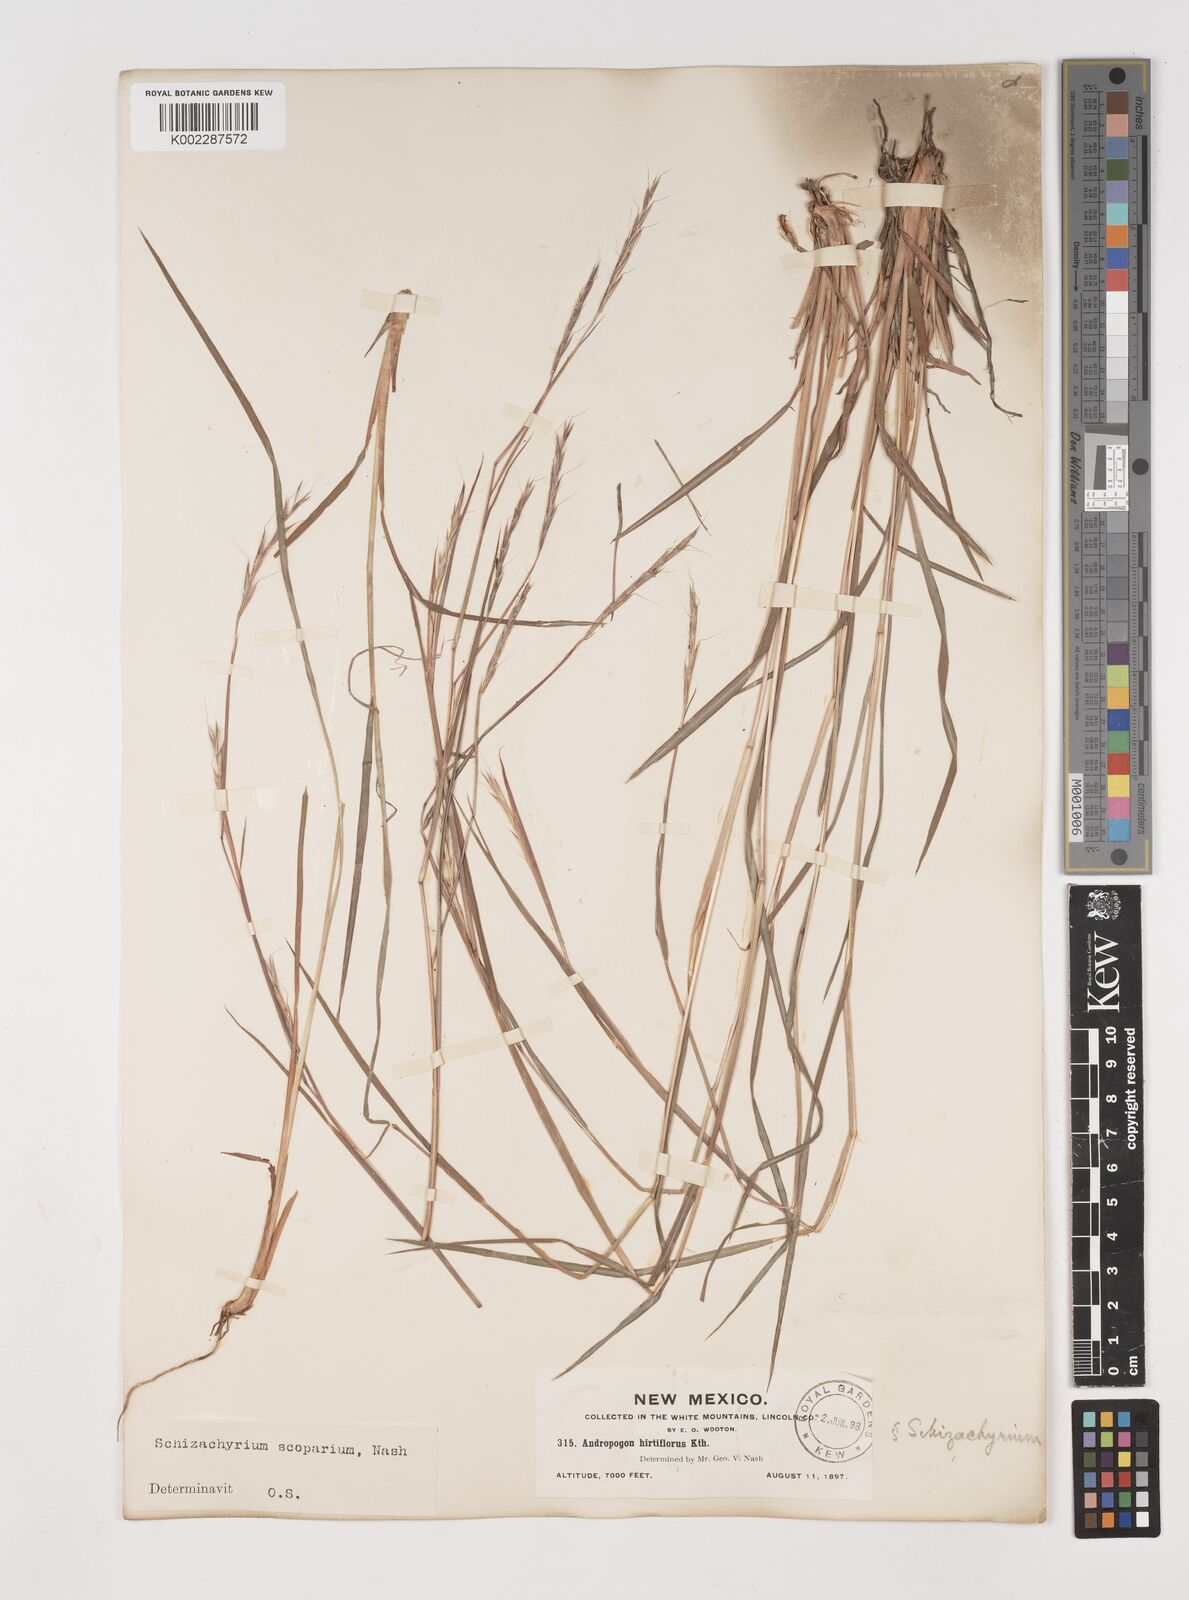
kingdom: Plantae
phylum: Tracheophyta
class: Liliopsida
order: Poales
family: Poaceae
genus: Schizachyrium
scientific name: Schizachyrium scoparium
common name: Little bluestem
